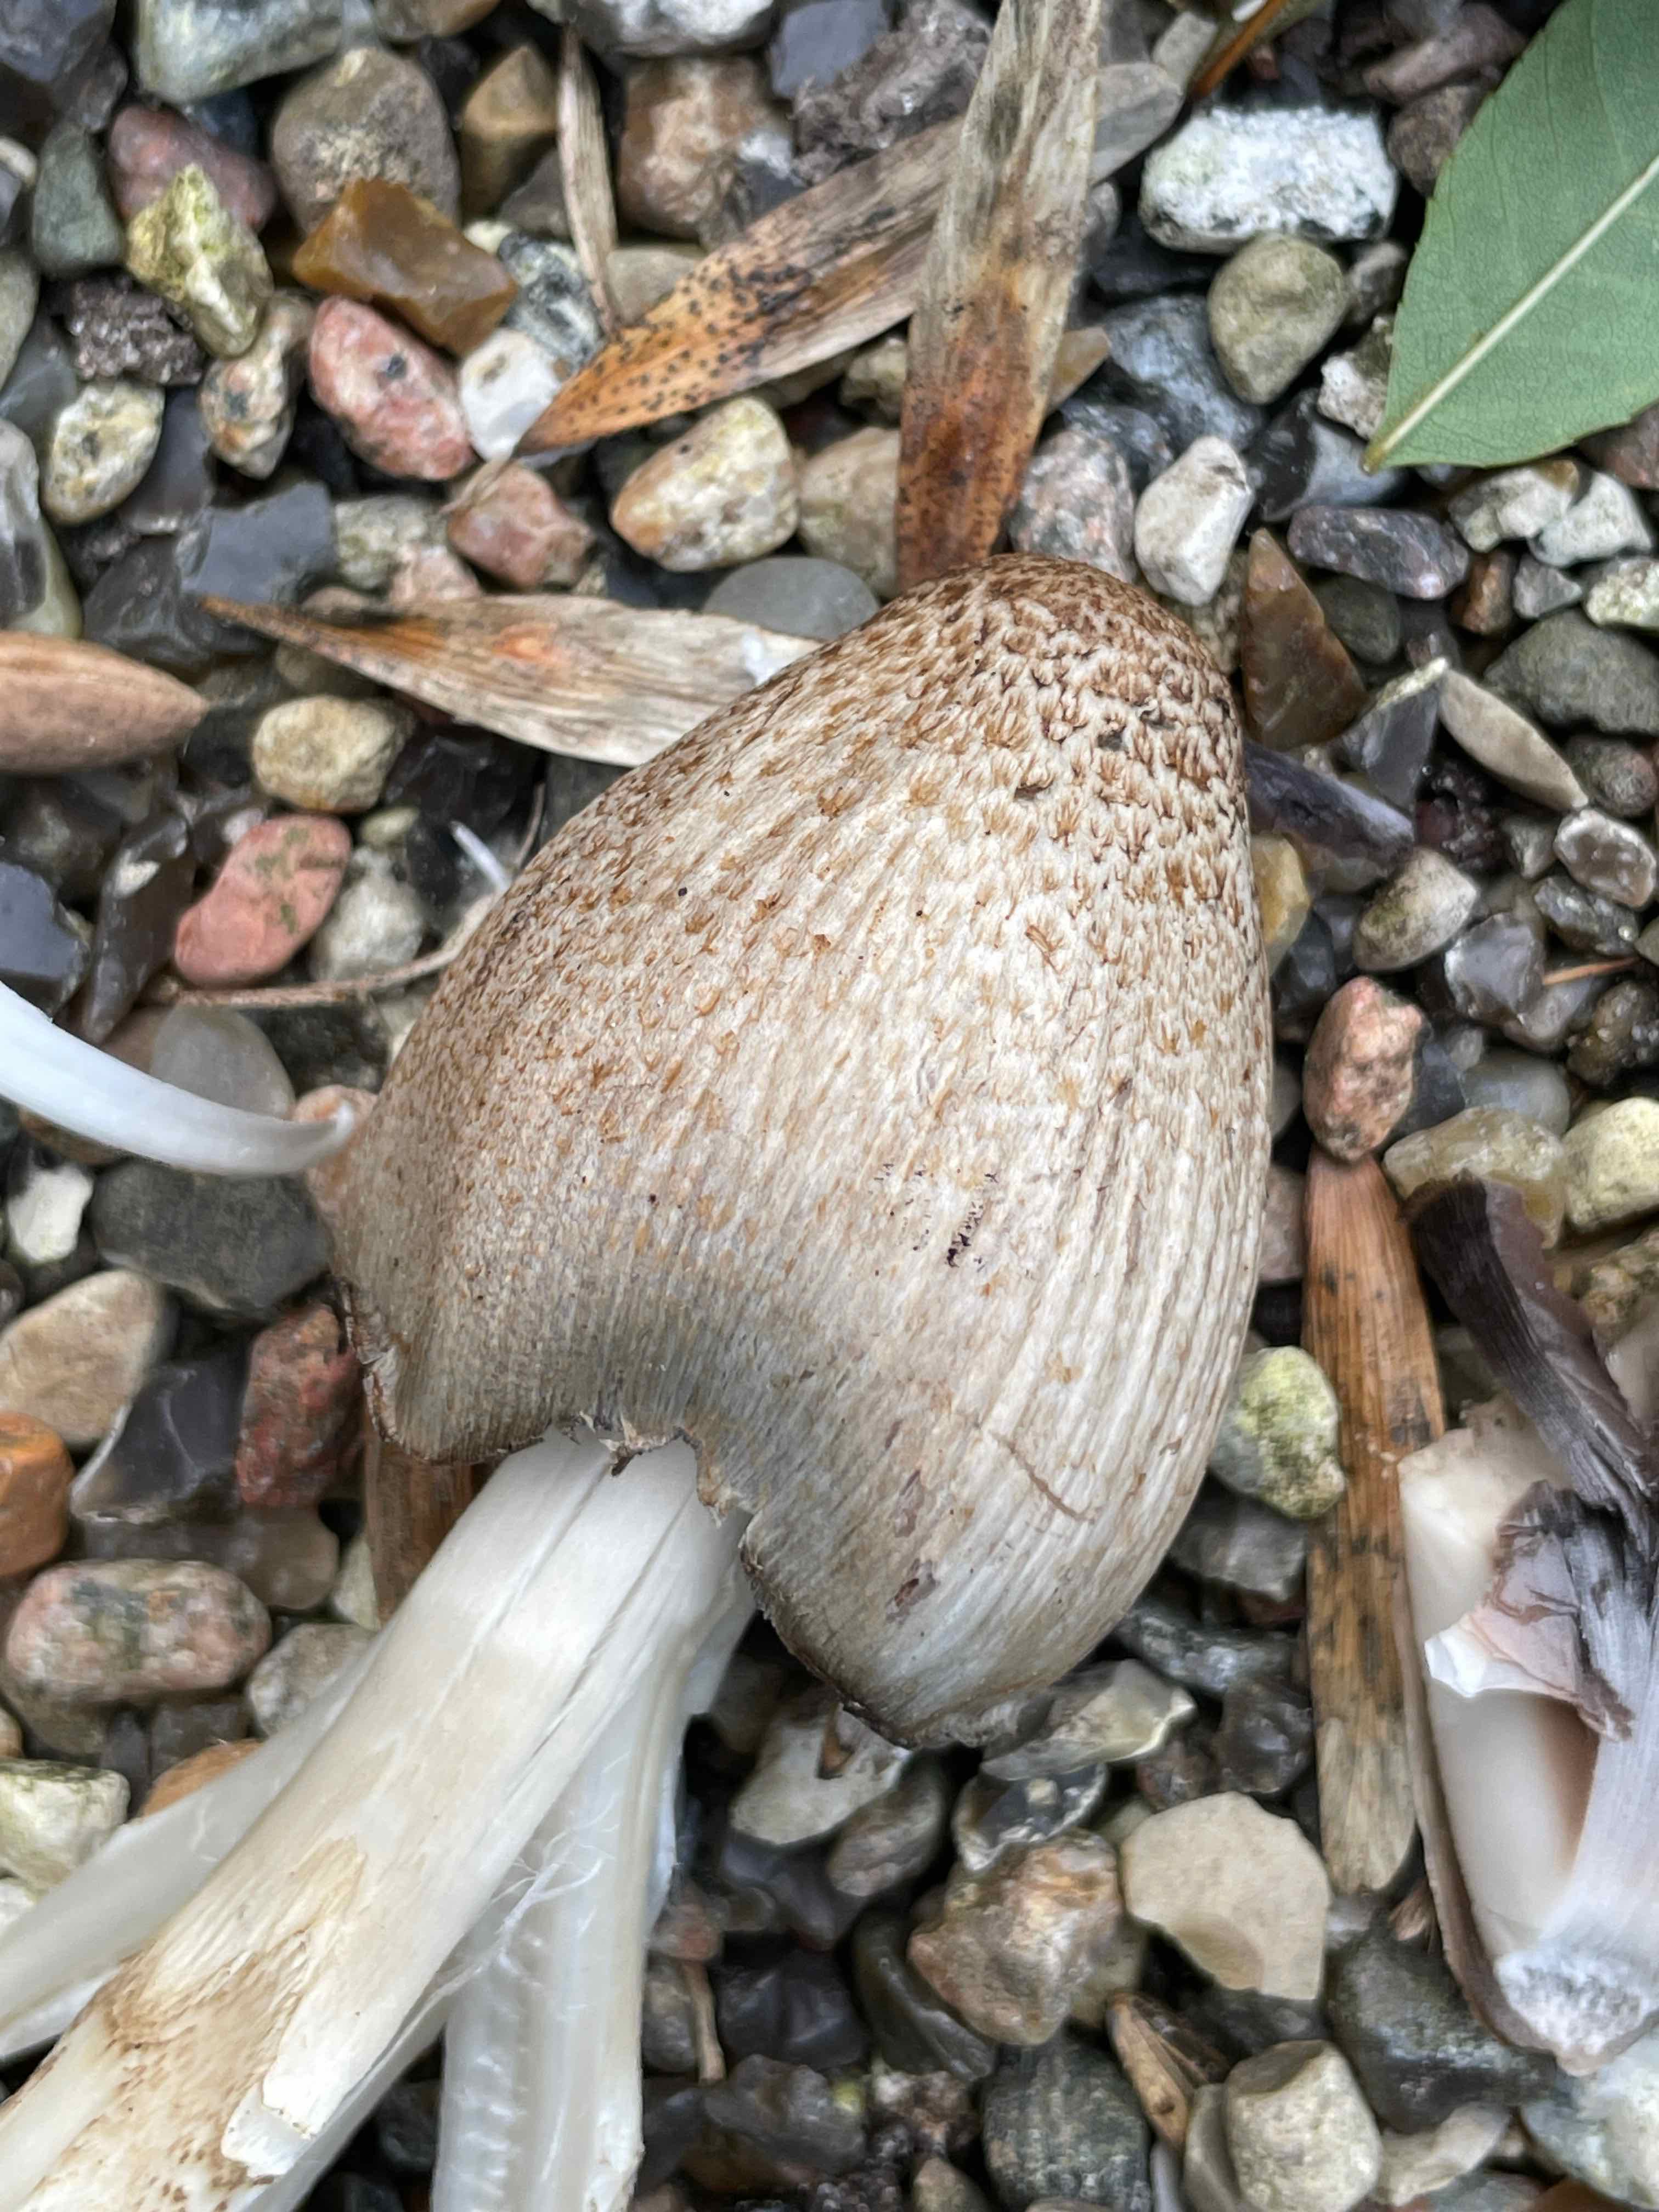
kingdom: Fungi
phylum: Basidiomycota
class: Agaricomycetes
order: Agaricales
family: Psathyrellaceae
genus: Coprinopsis
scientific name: Coprinopsis romagnesiana
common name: brunskællet blækhat
